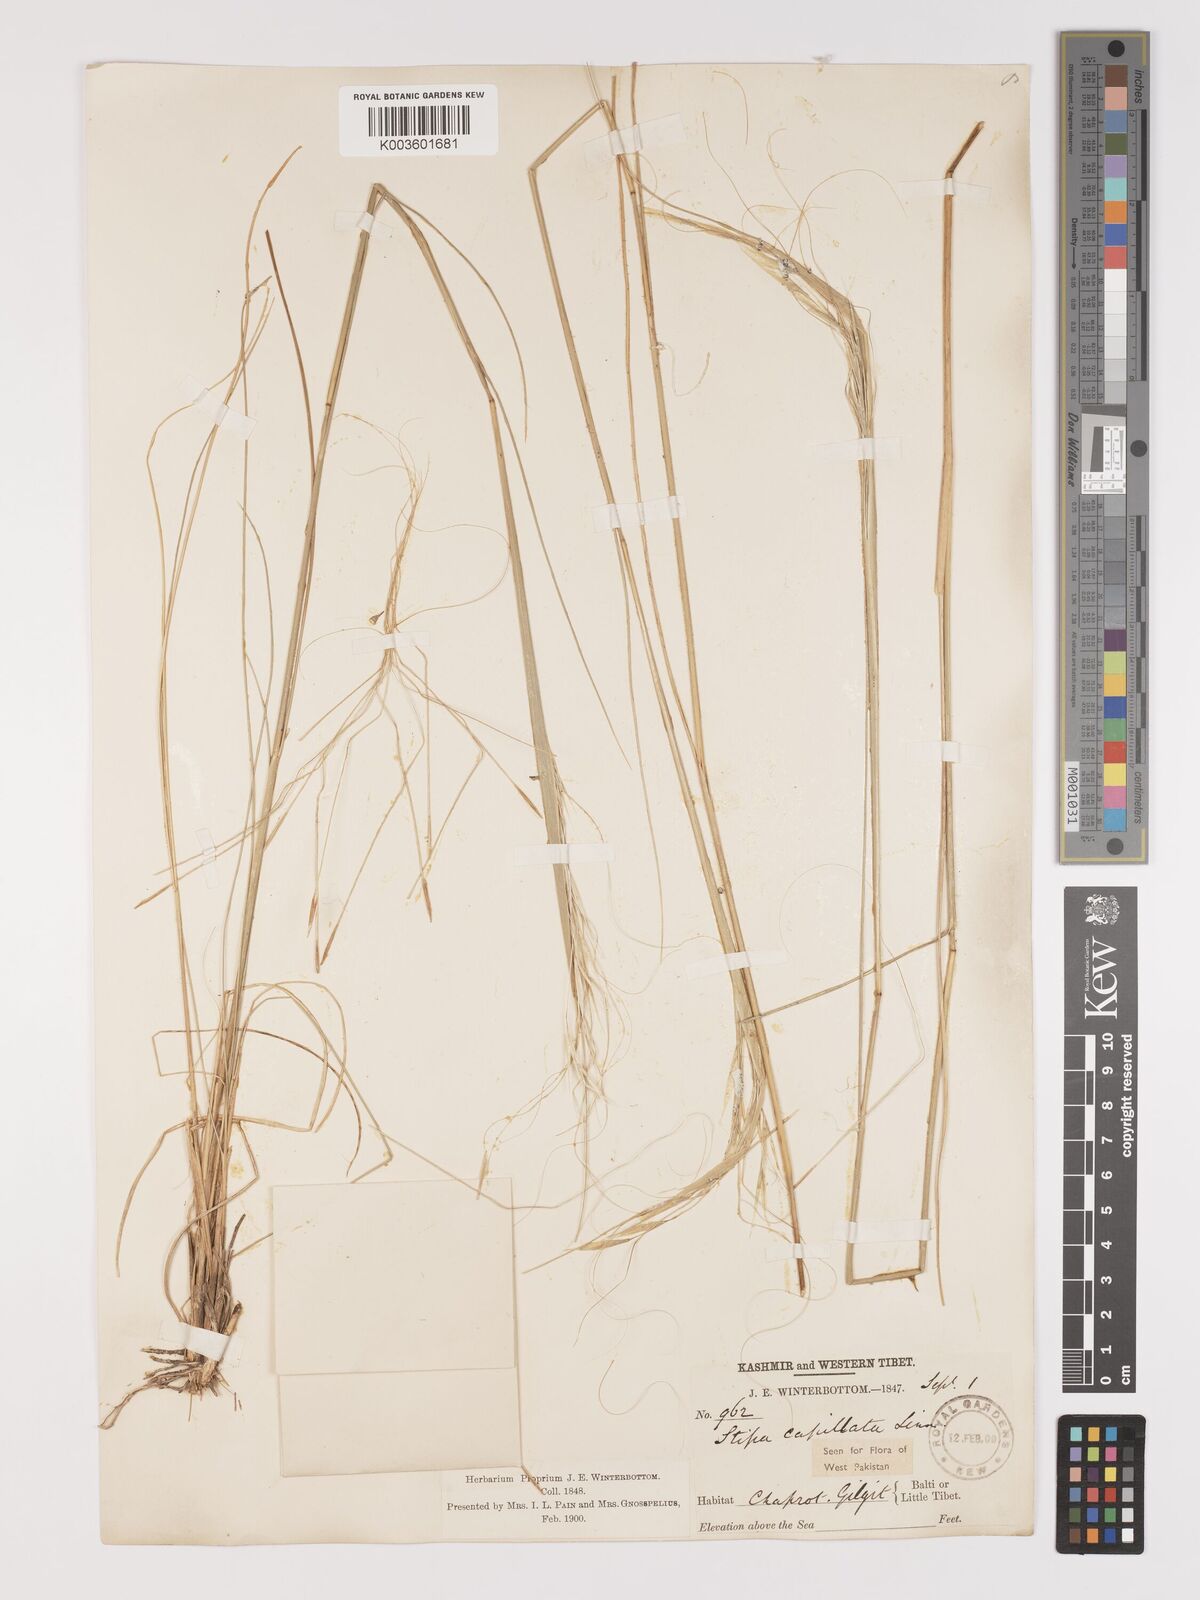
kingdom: Plantae
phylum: Tracheophyta
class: Liliopsida
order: Poales
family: Poaceae
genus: Stipa
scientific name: Stipa capillata
